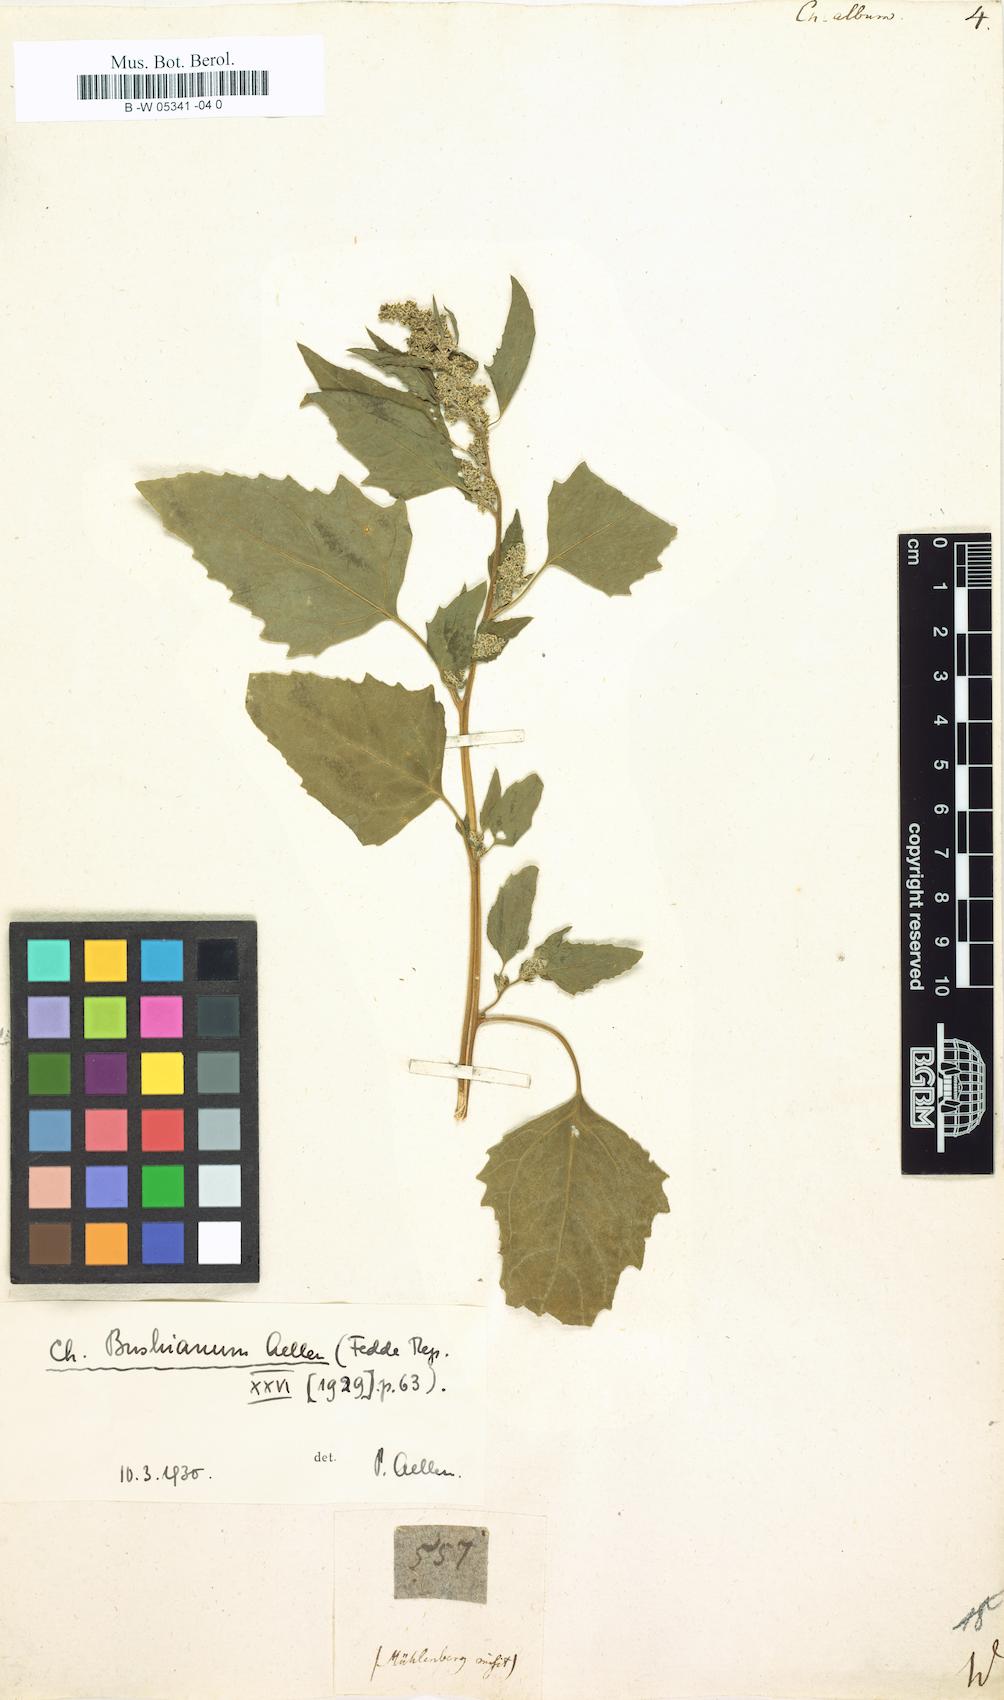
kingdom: Plantae
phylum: Tracheophyta
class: Magnoliopsida
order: Caryophyllales
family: Amaranthaceae
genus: Chenopodium
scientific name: Chenopodium album
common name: Fat-hen
